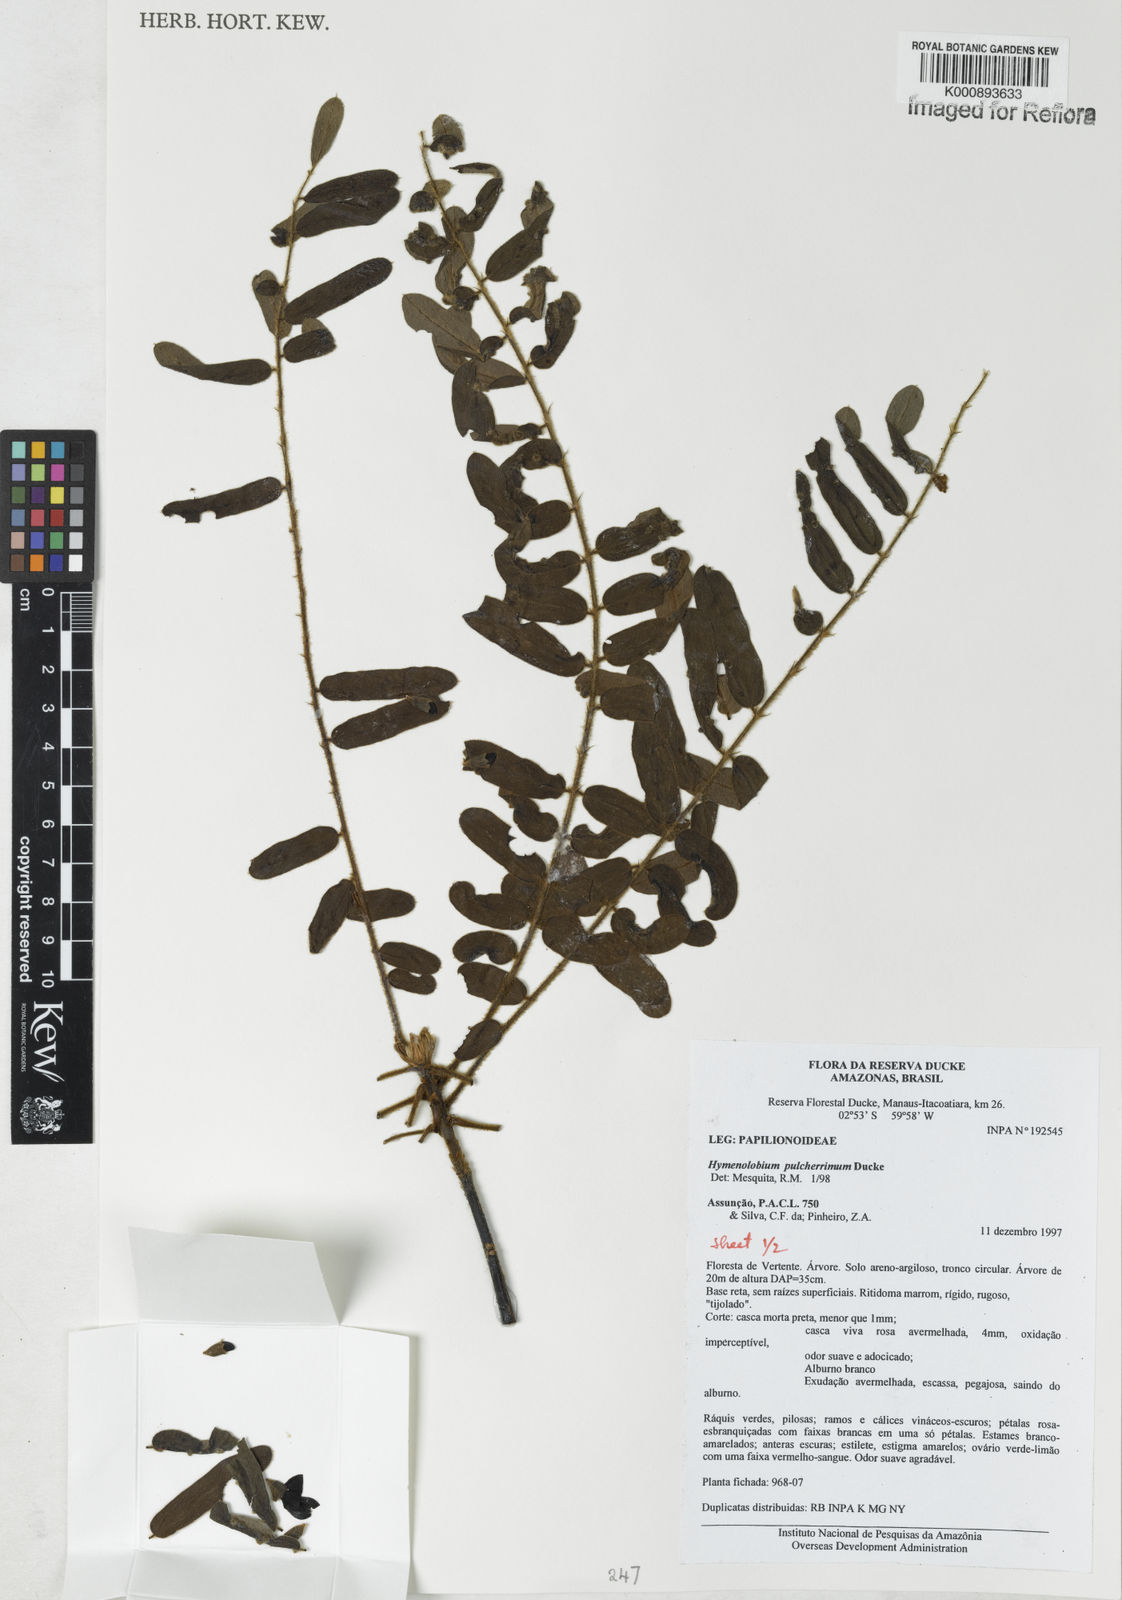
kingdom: Plantae
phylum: Tracheophyta
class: Magnoliopsida
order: Fabales
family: Fabaceae
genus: Hymenolobium
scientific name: Hymenolobium pulcherrimum
